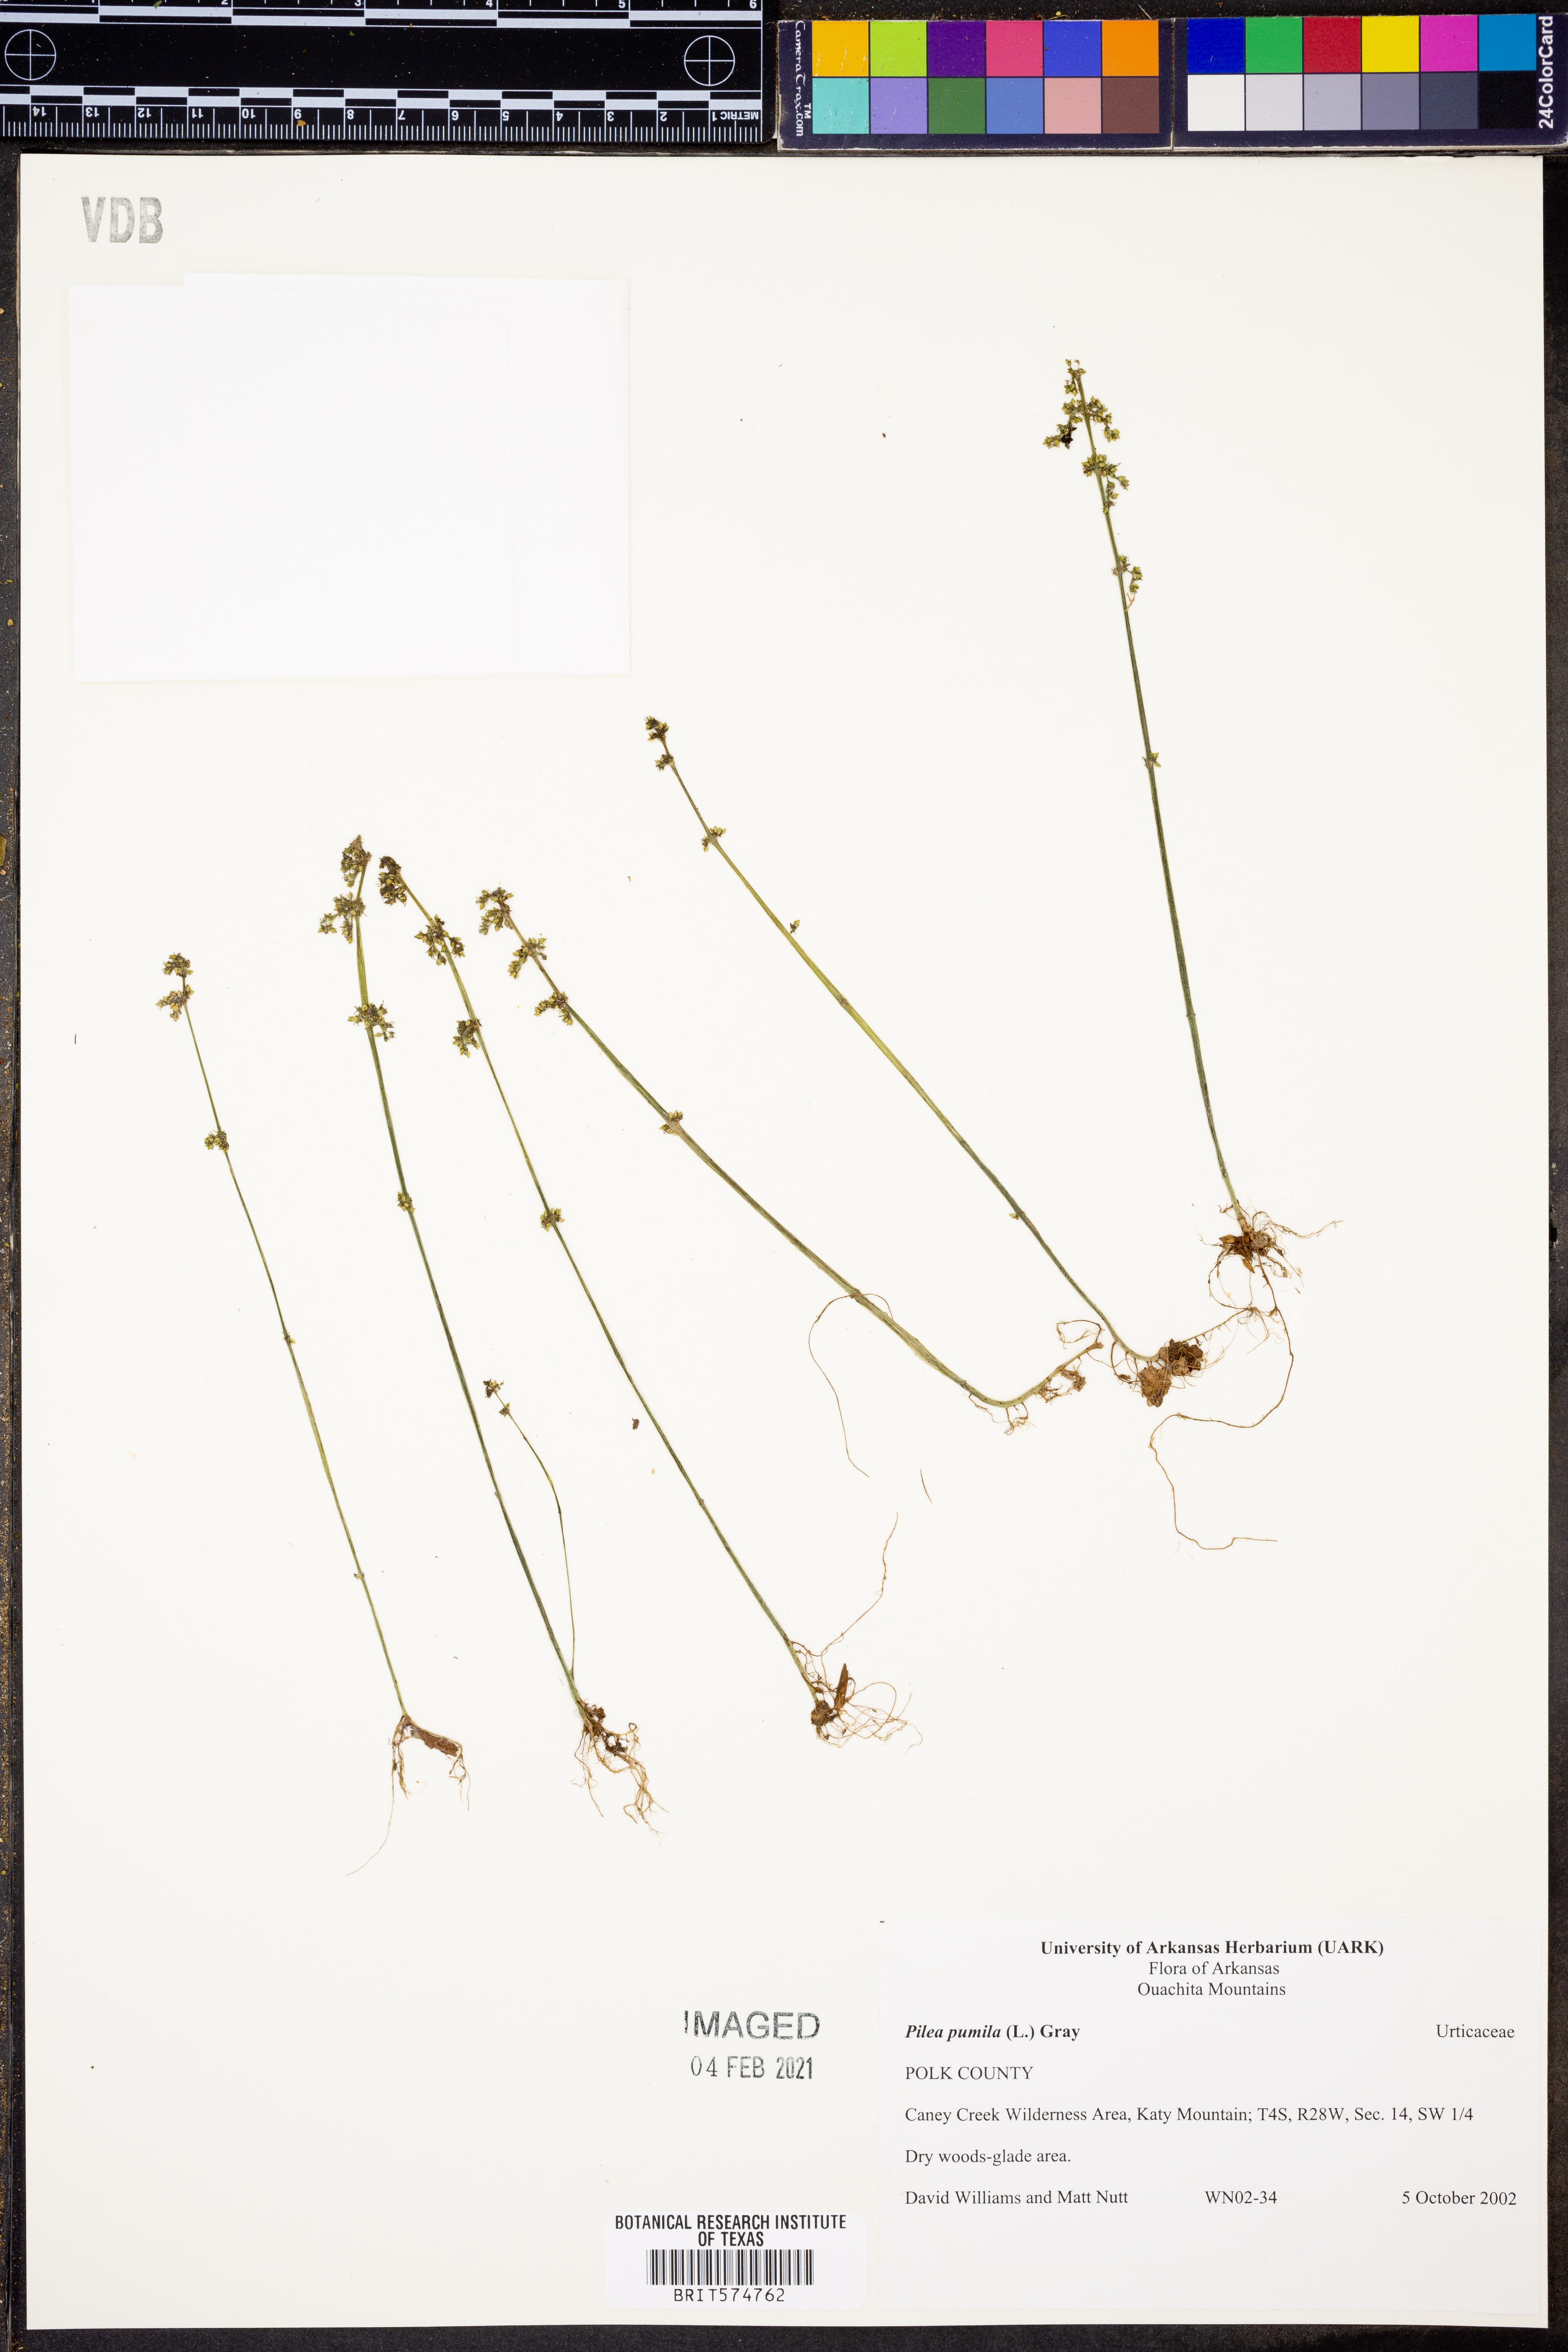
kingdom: Plantae
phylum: Tracheophyta
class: Magnoliopsida
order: Rosales
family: Urticaceae
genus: Pilea
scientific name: Pilea pumila
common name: Clearweed
